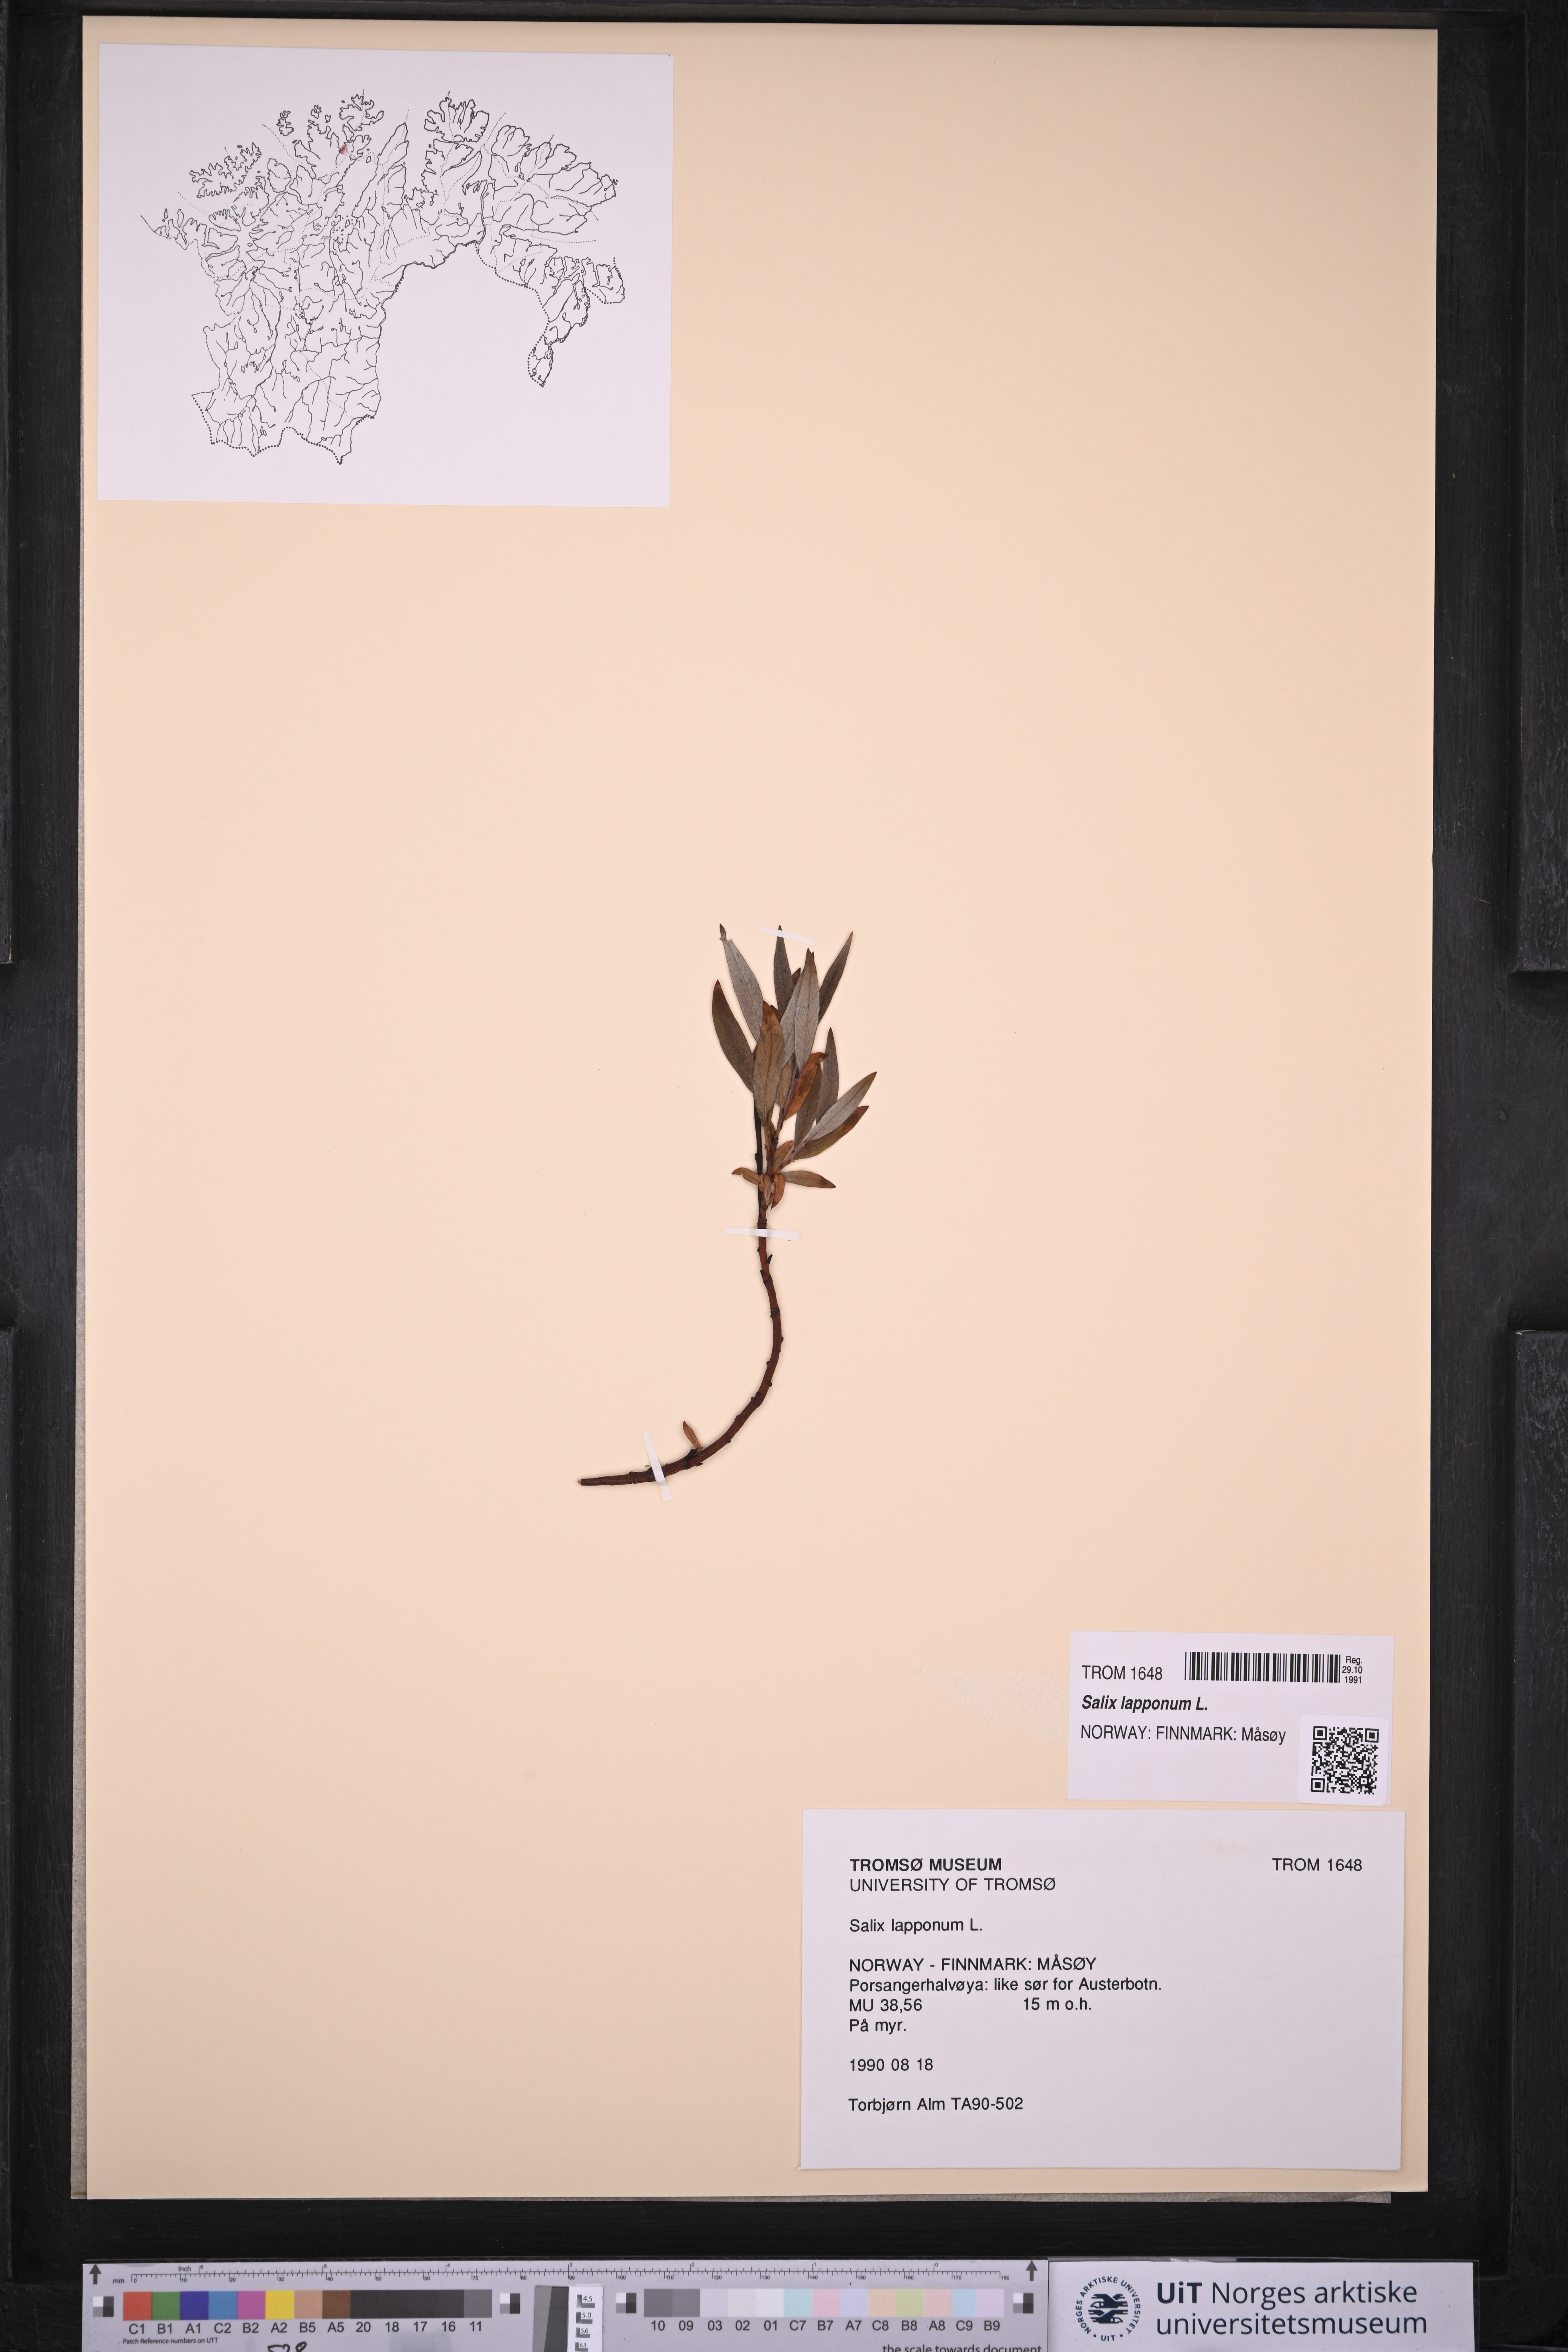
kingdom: Plantae
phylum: Tracheophyta
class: Magnoliopsida
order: Malpighiales
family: Salicaceae
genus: Salix
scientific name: Salix lapponum
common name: Downy willow
